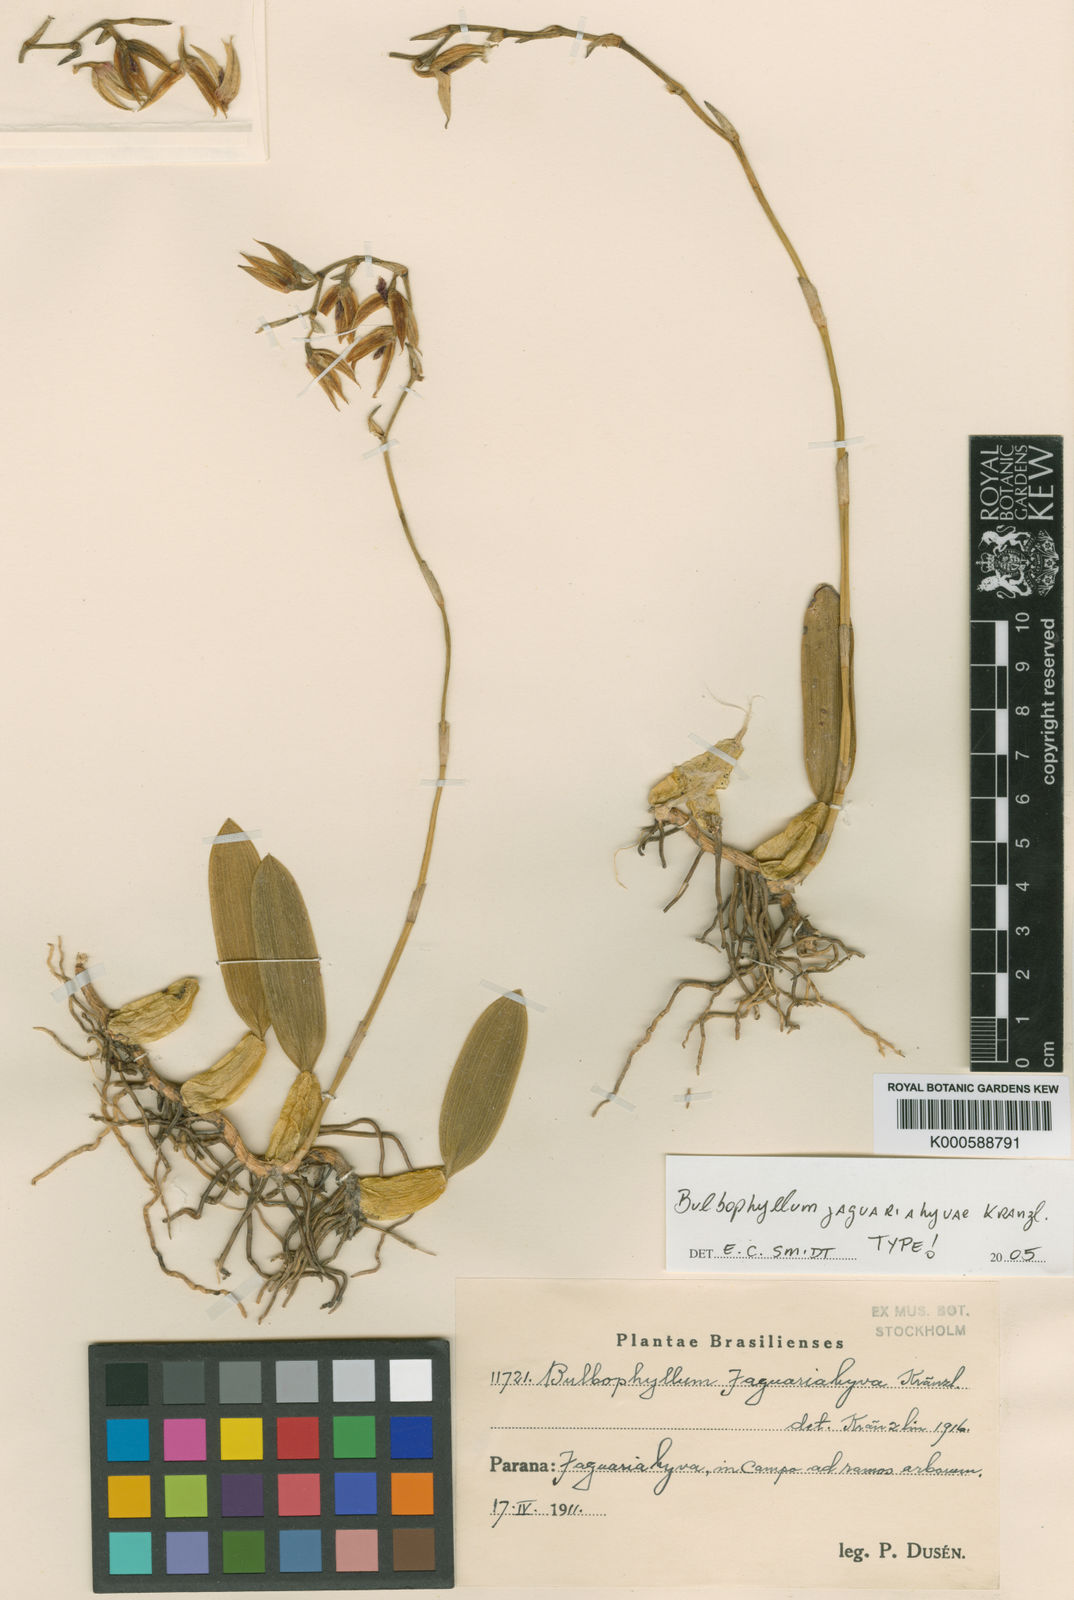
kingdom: Plantae
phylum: Tracheophyta
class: Liliopsida
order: Asparagales
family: Orchidaceae
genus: Bulbophyllum
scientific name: Bulbophyllum tripetalum
